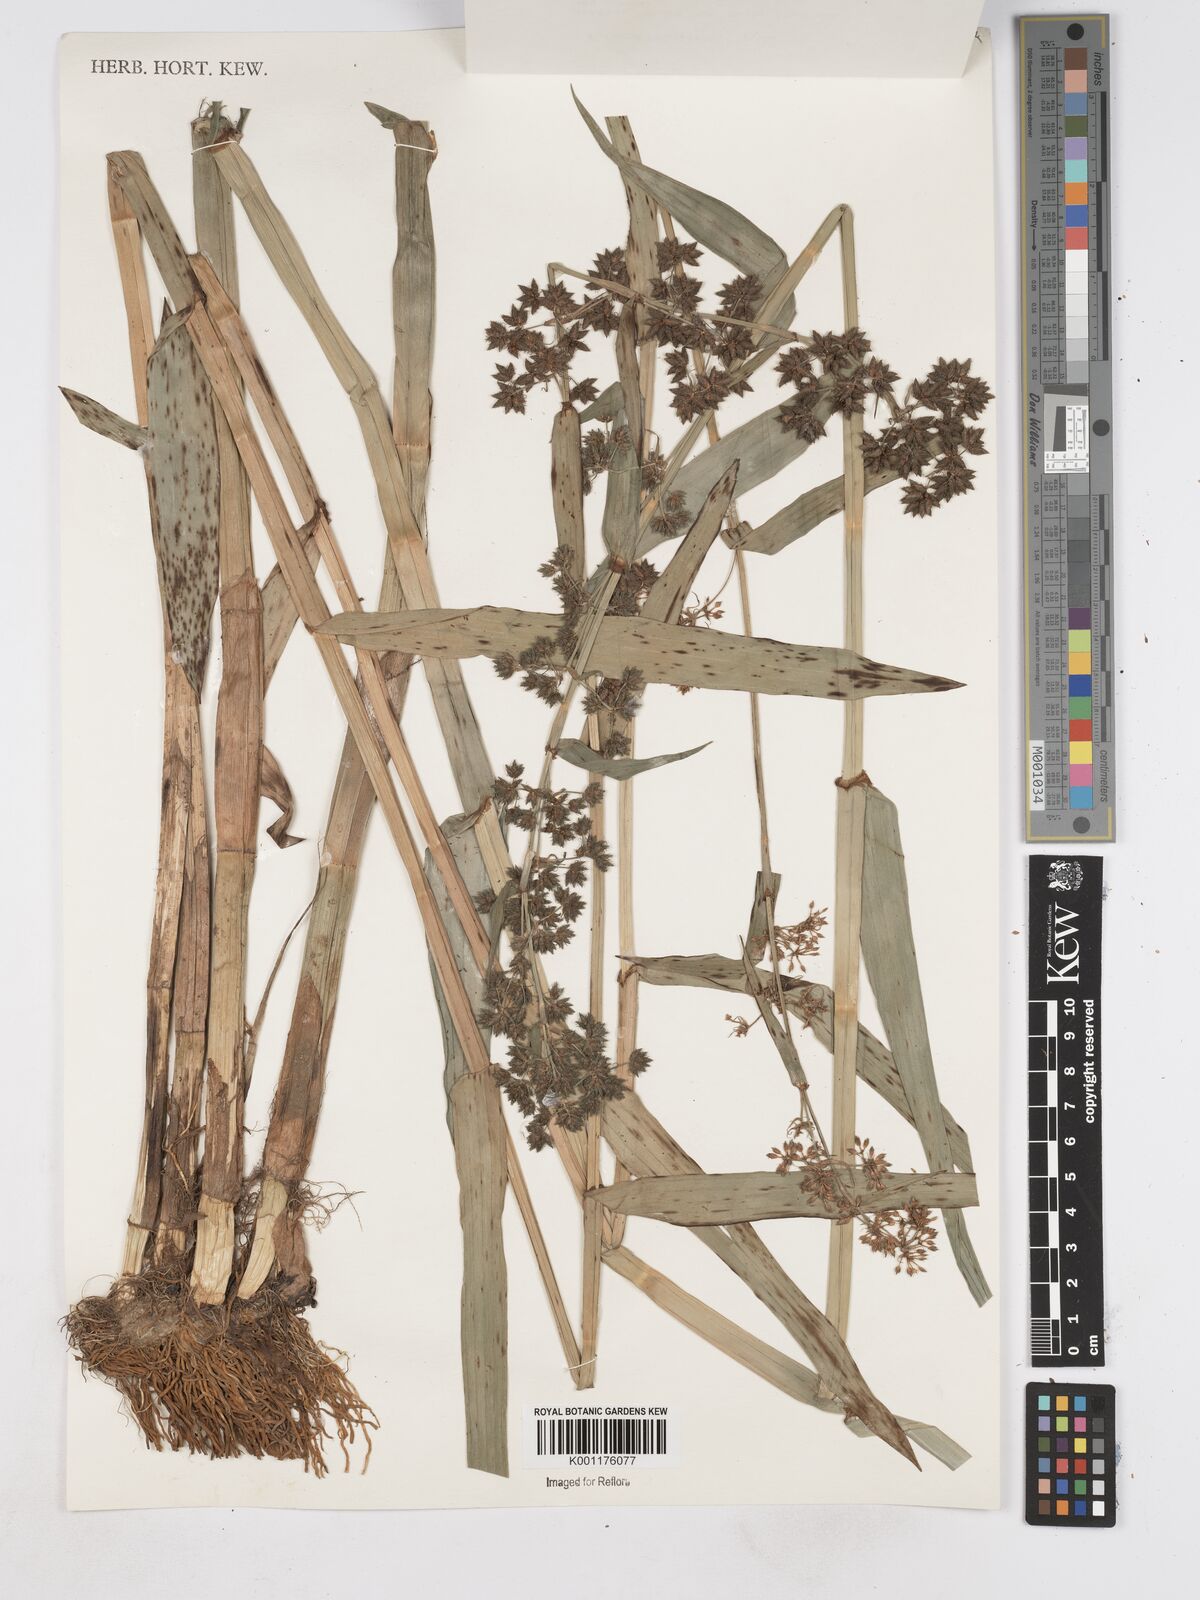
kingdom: Plantae
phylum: Tracheophyta
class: Liliopsida
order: Poales
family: Cyperaceae
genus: Fuirena
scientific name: Fuirena umbellata
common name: Yefen
